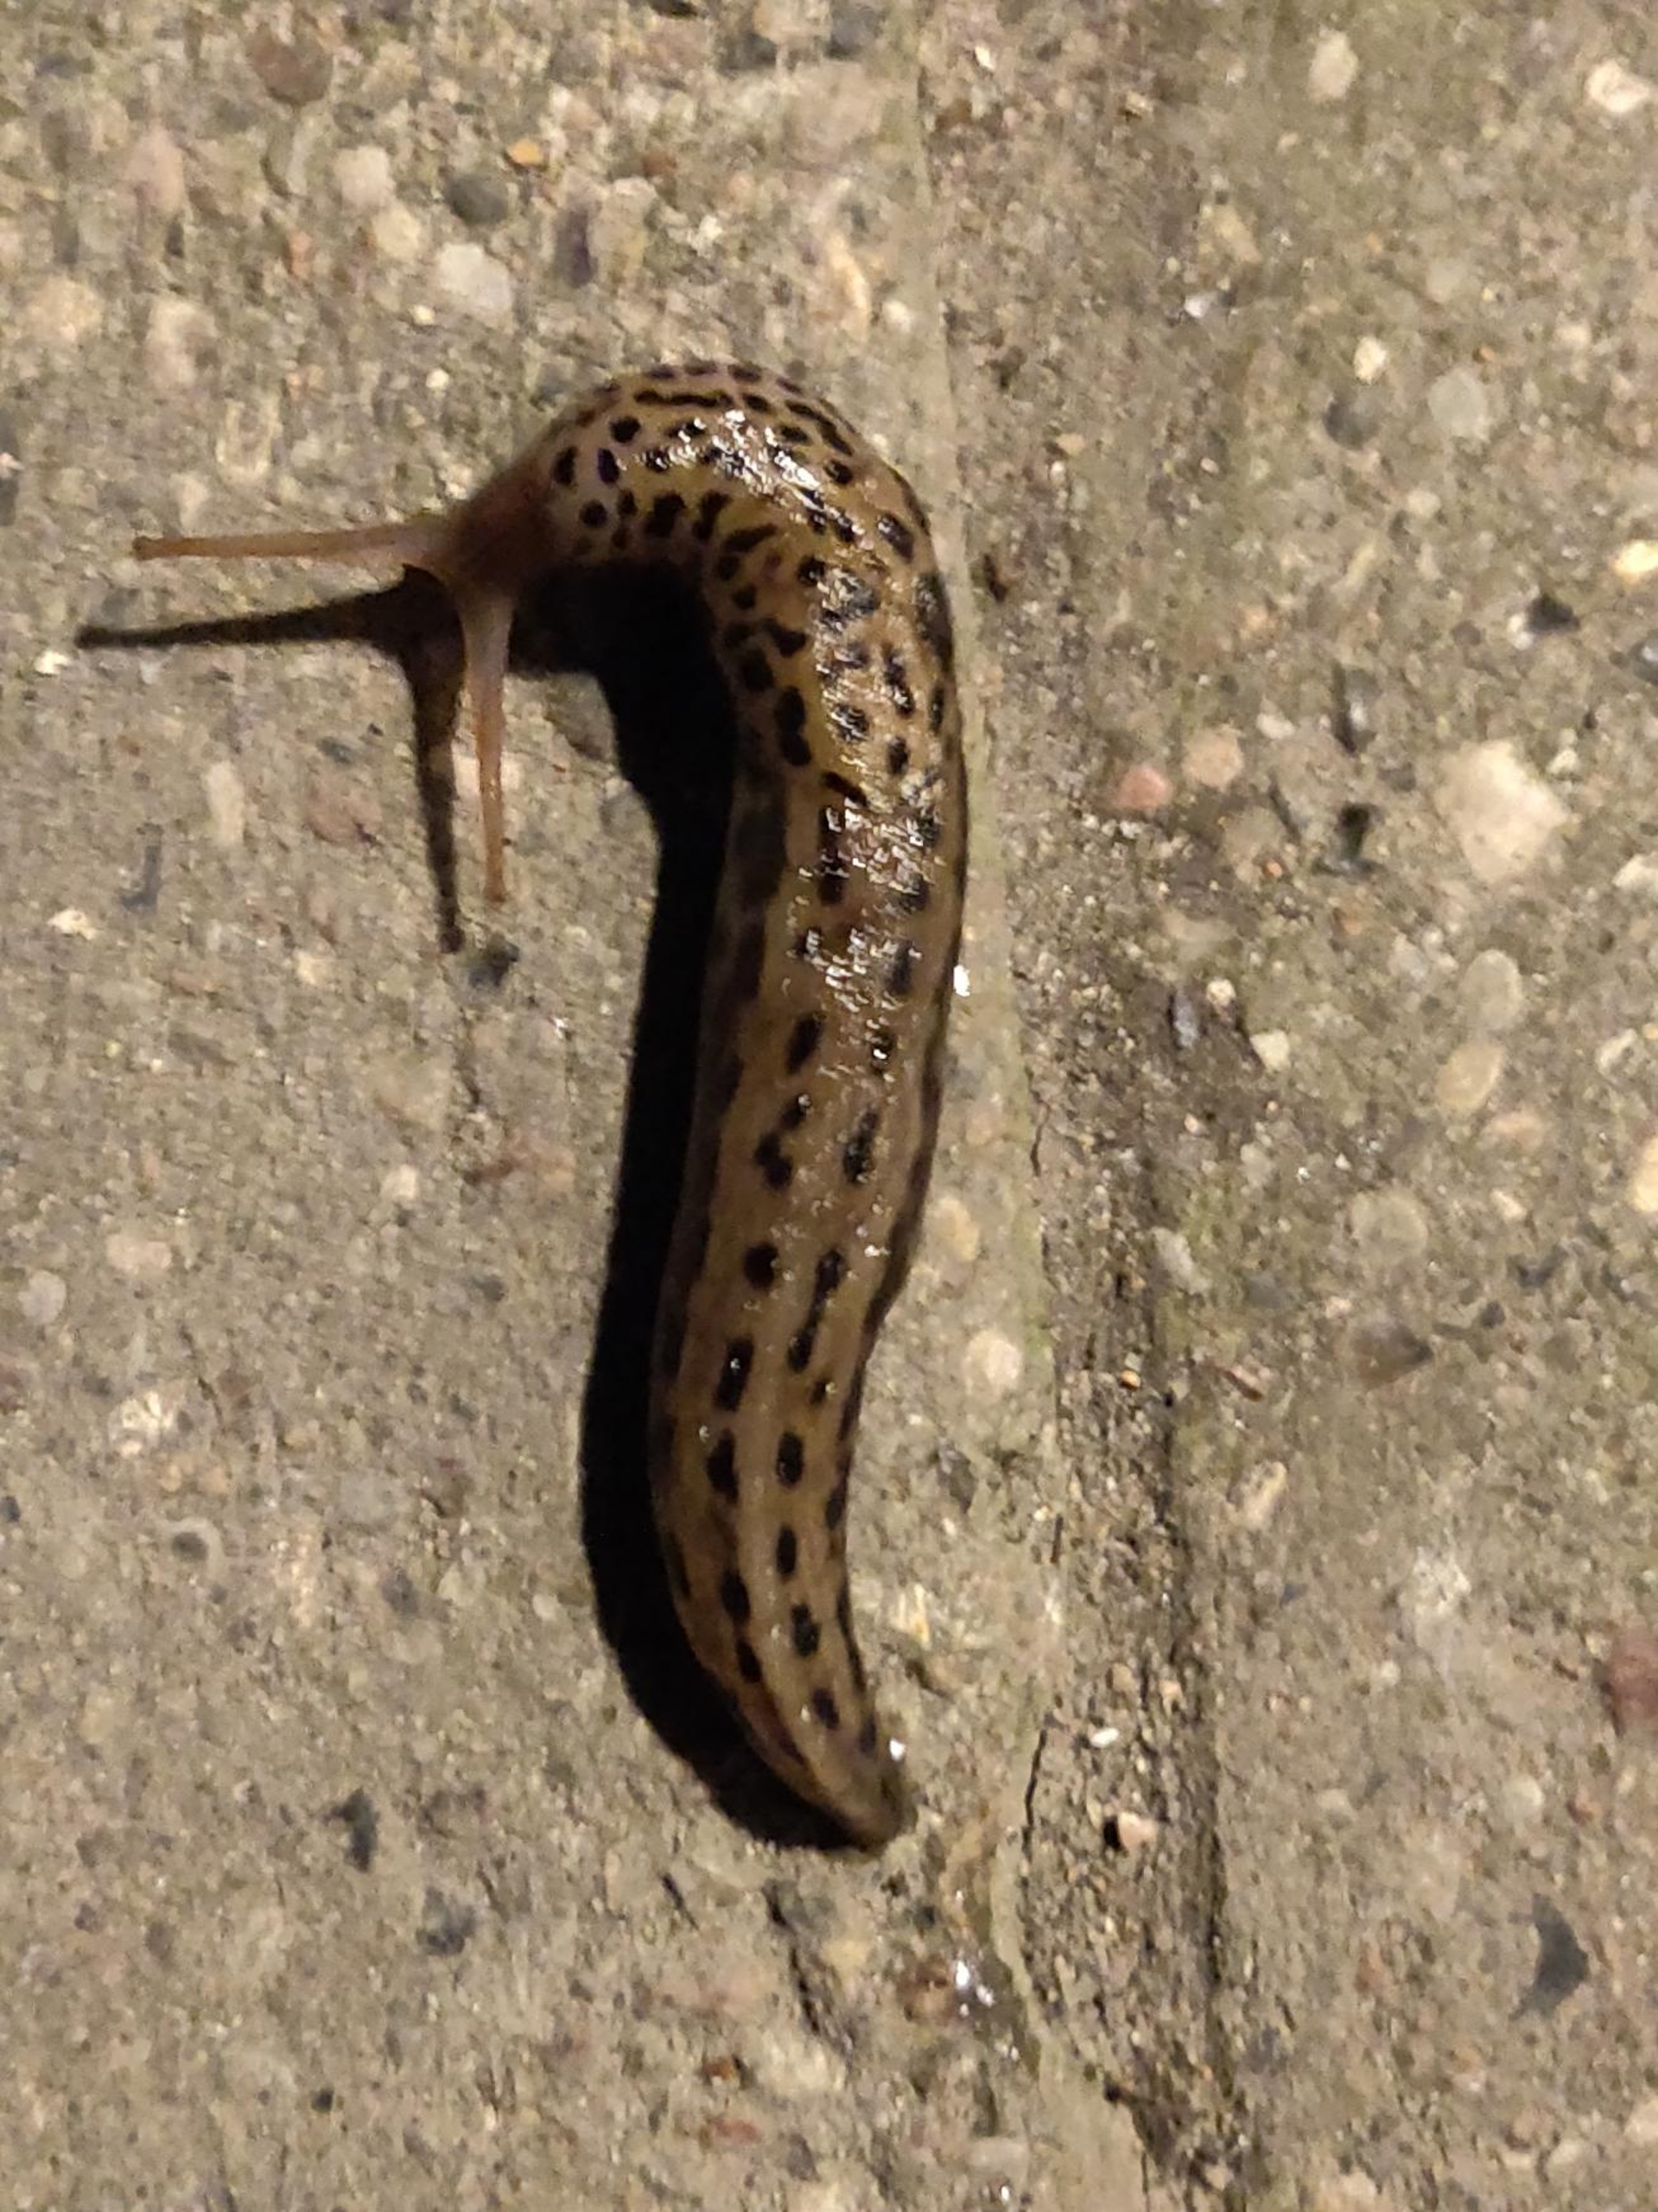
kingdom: Animalia
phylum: Mollusca
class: Gastropoda
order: Stylommatophora
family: Limacidae
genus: Limax
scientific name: Limax maximus
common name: Pantersnegl
